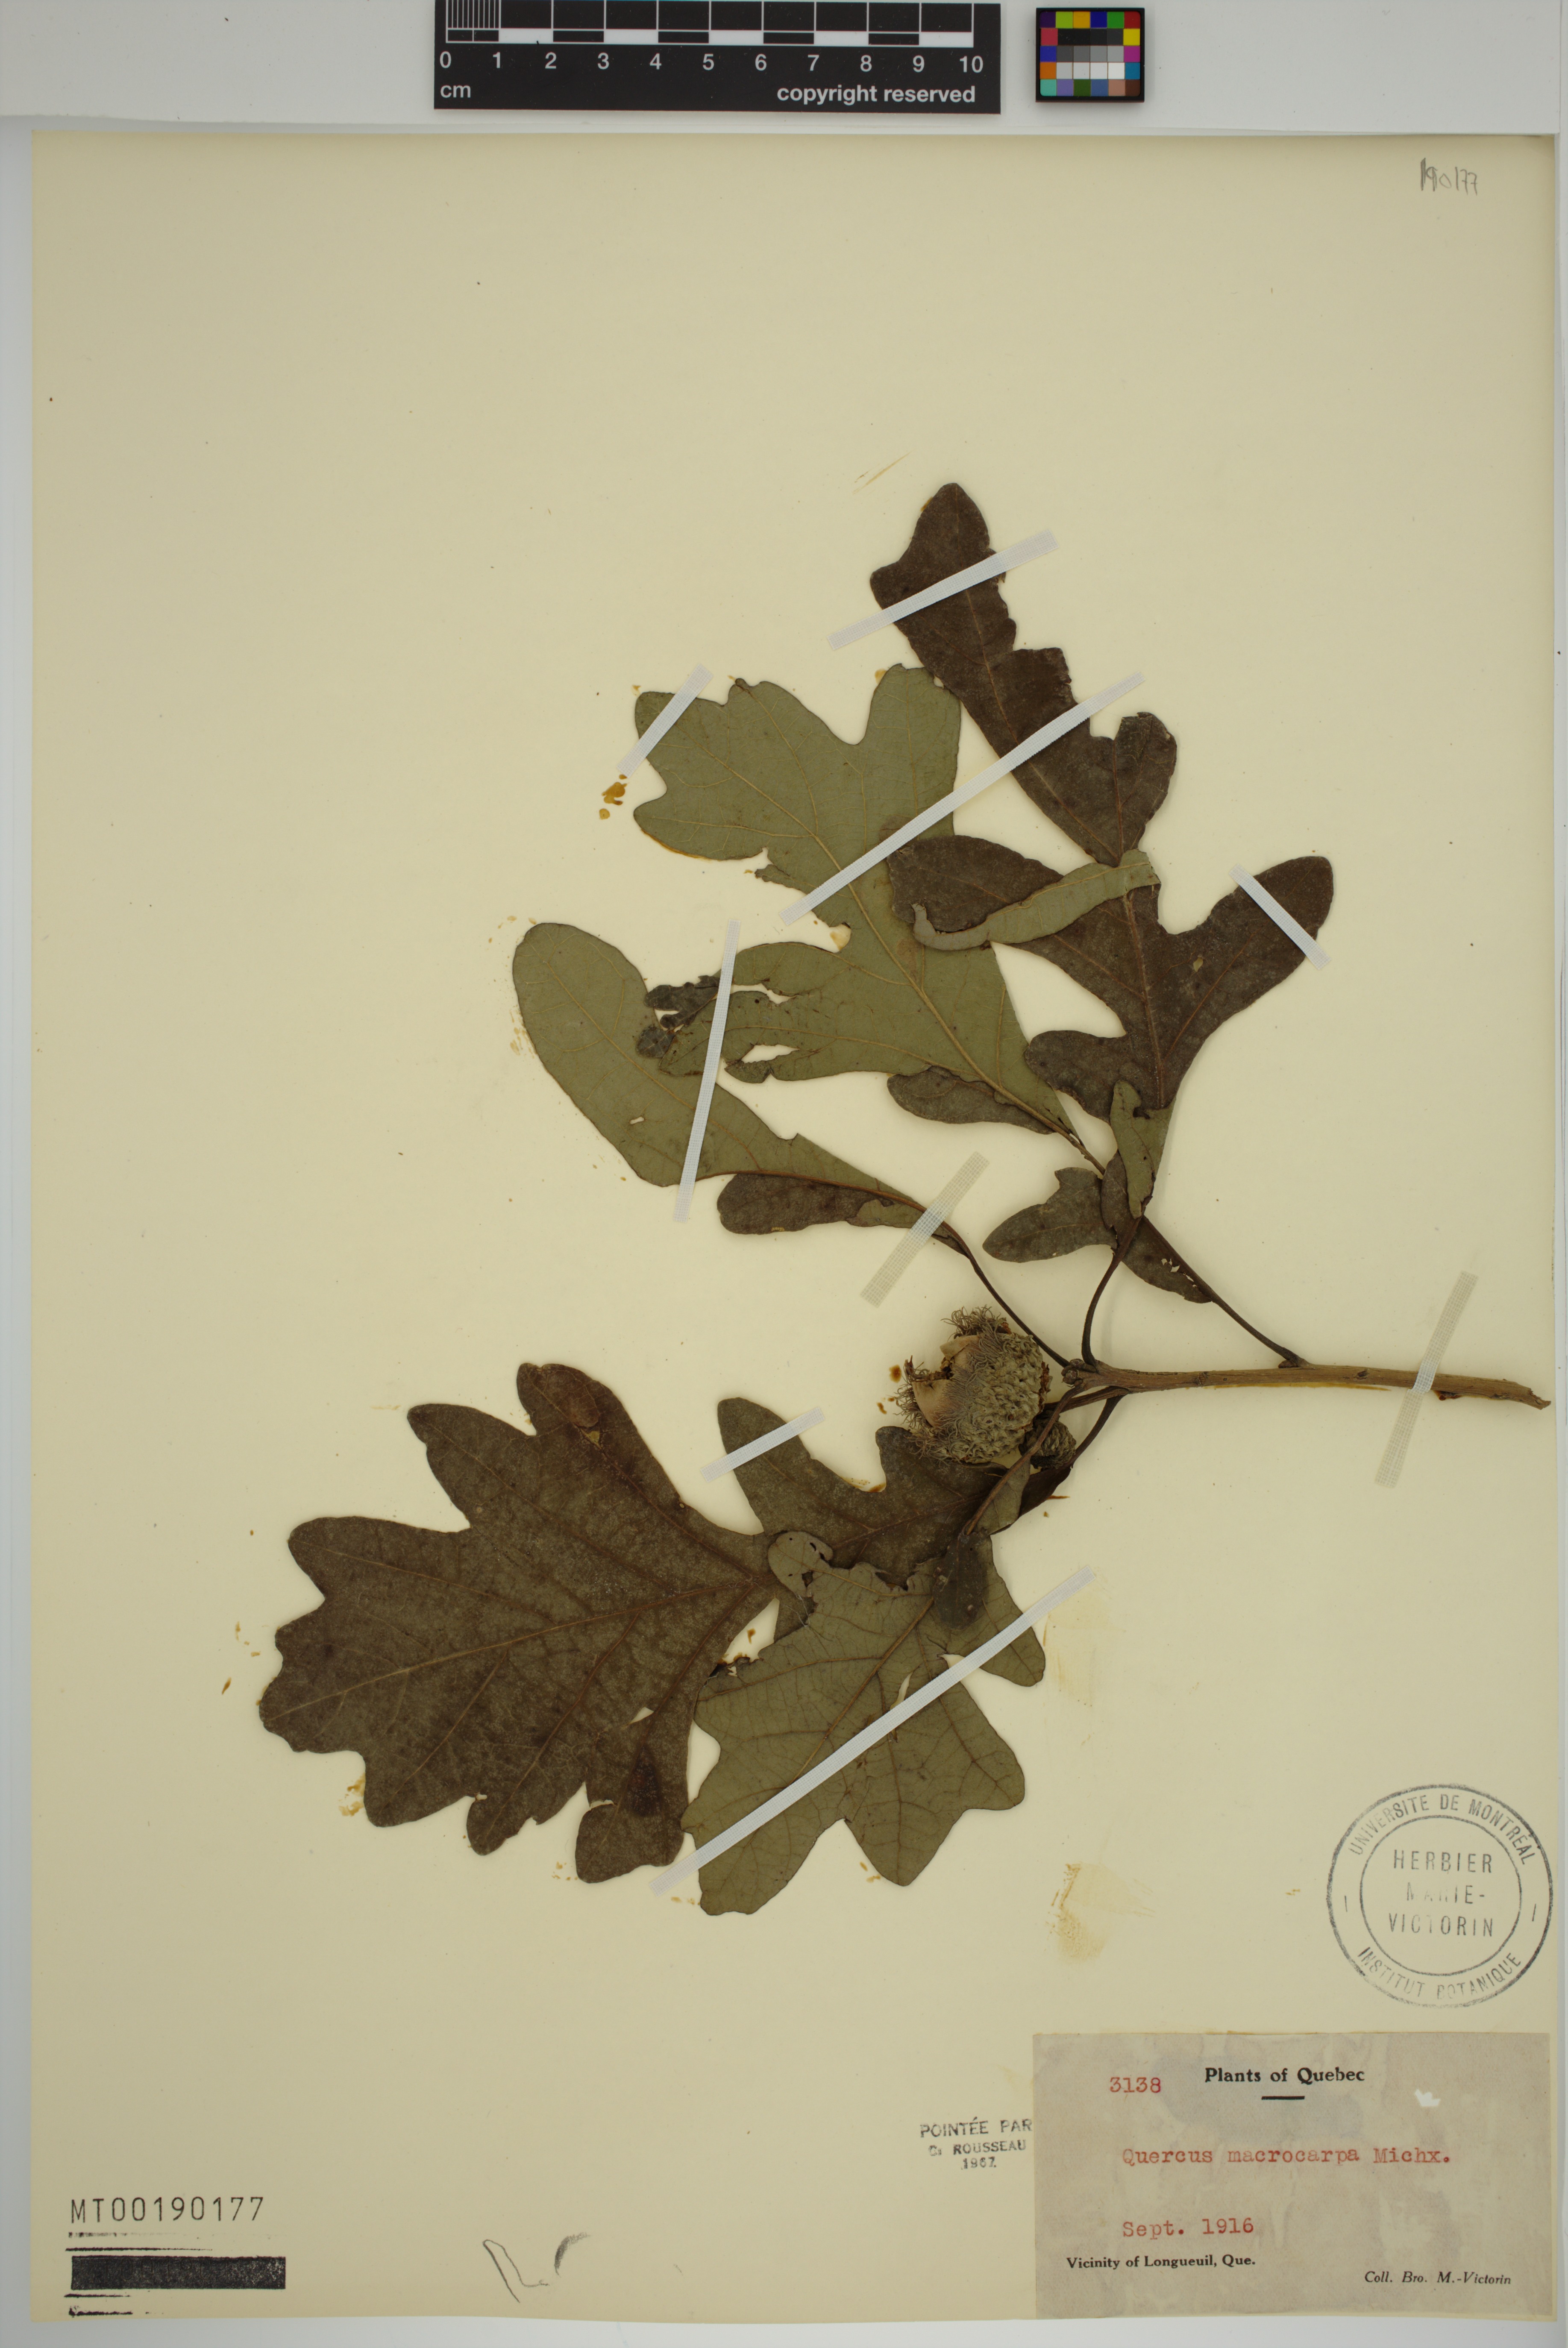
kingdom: Plantae
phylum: Tracheophyta
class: Magnoliopsida
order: Fagales
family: Fagaceae
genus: Quercus
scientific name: Quercus macrocarpa
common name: Bur oak
